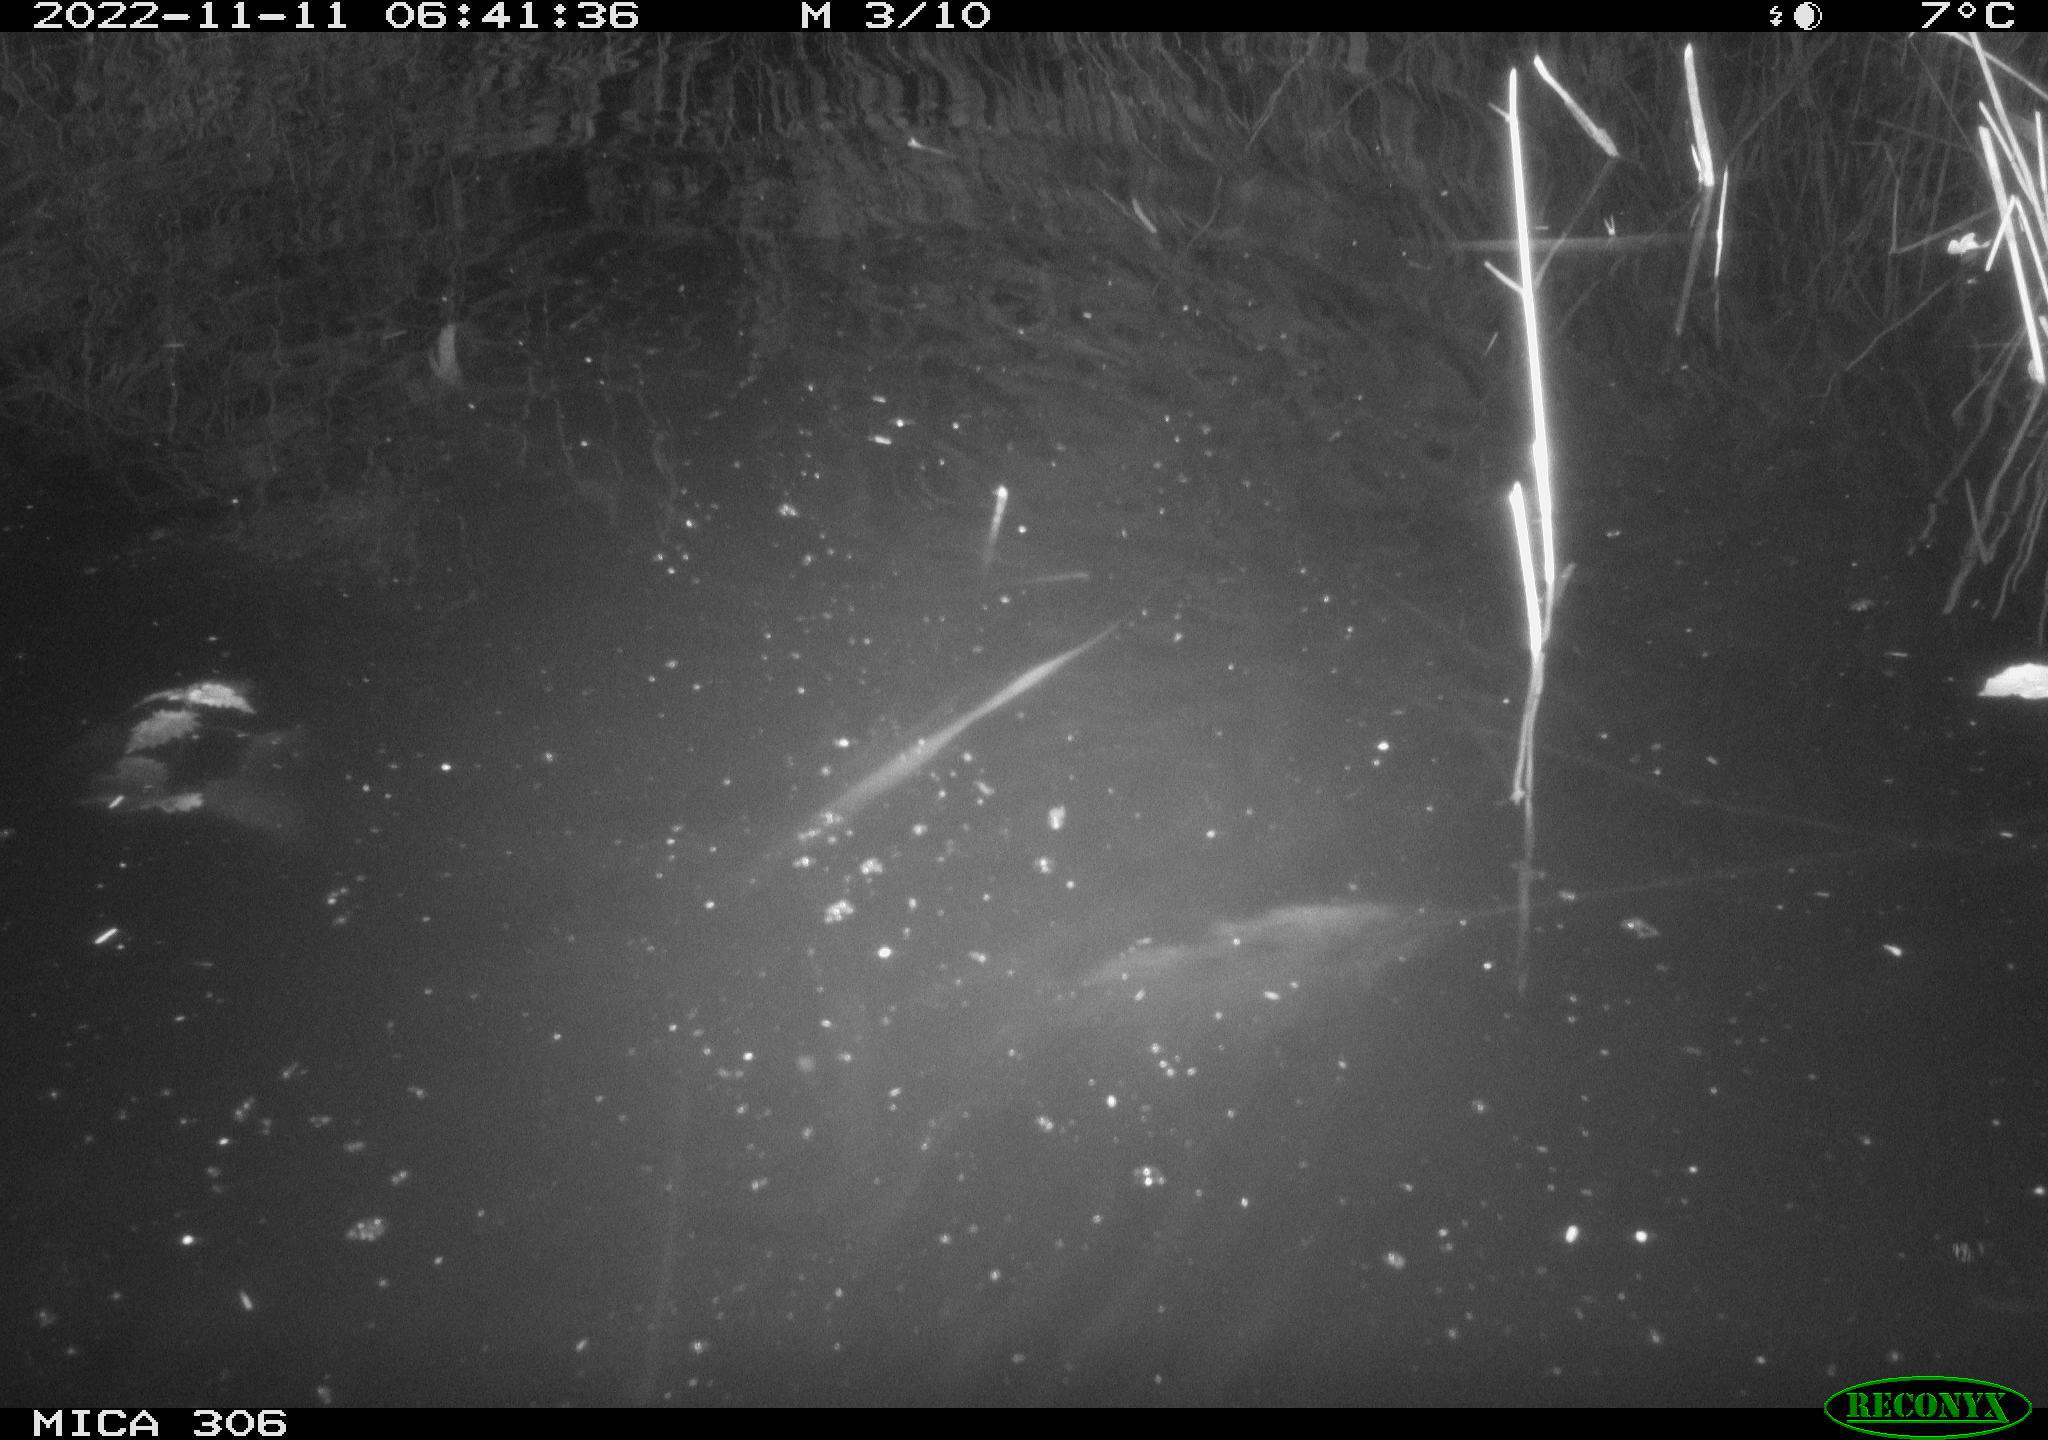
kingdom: Animalia
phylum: Chordata
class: Mammalia
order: Rodentia
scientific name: Rodentia
